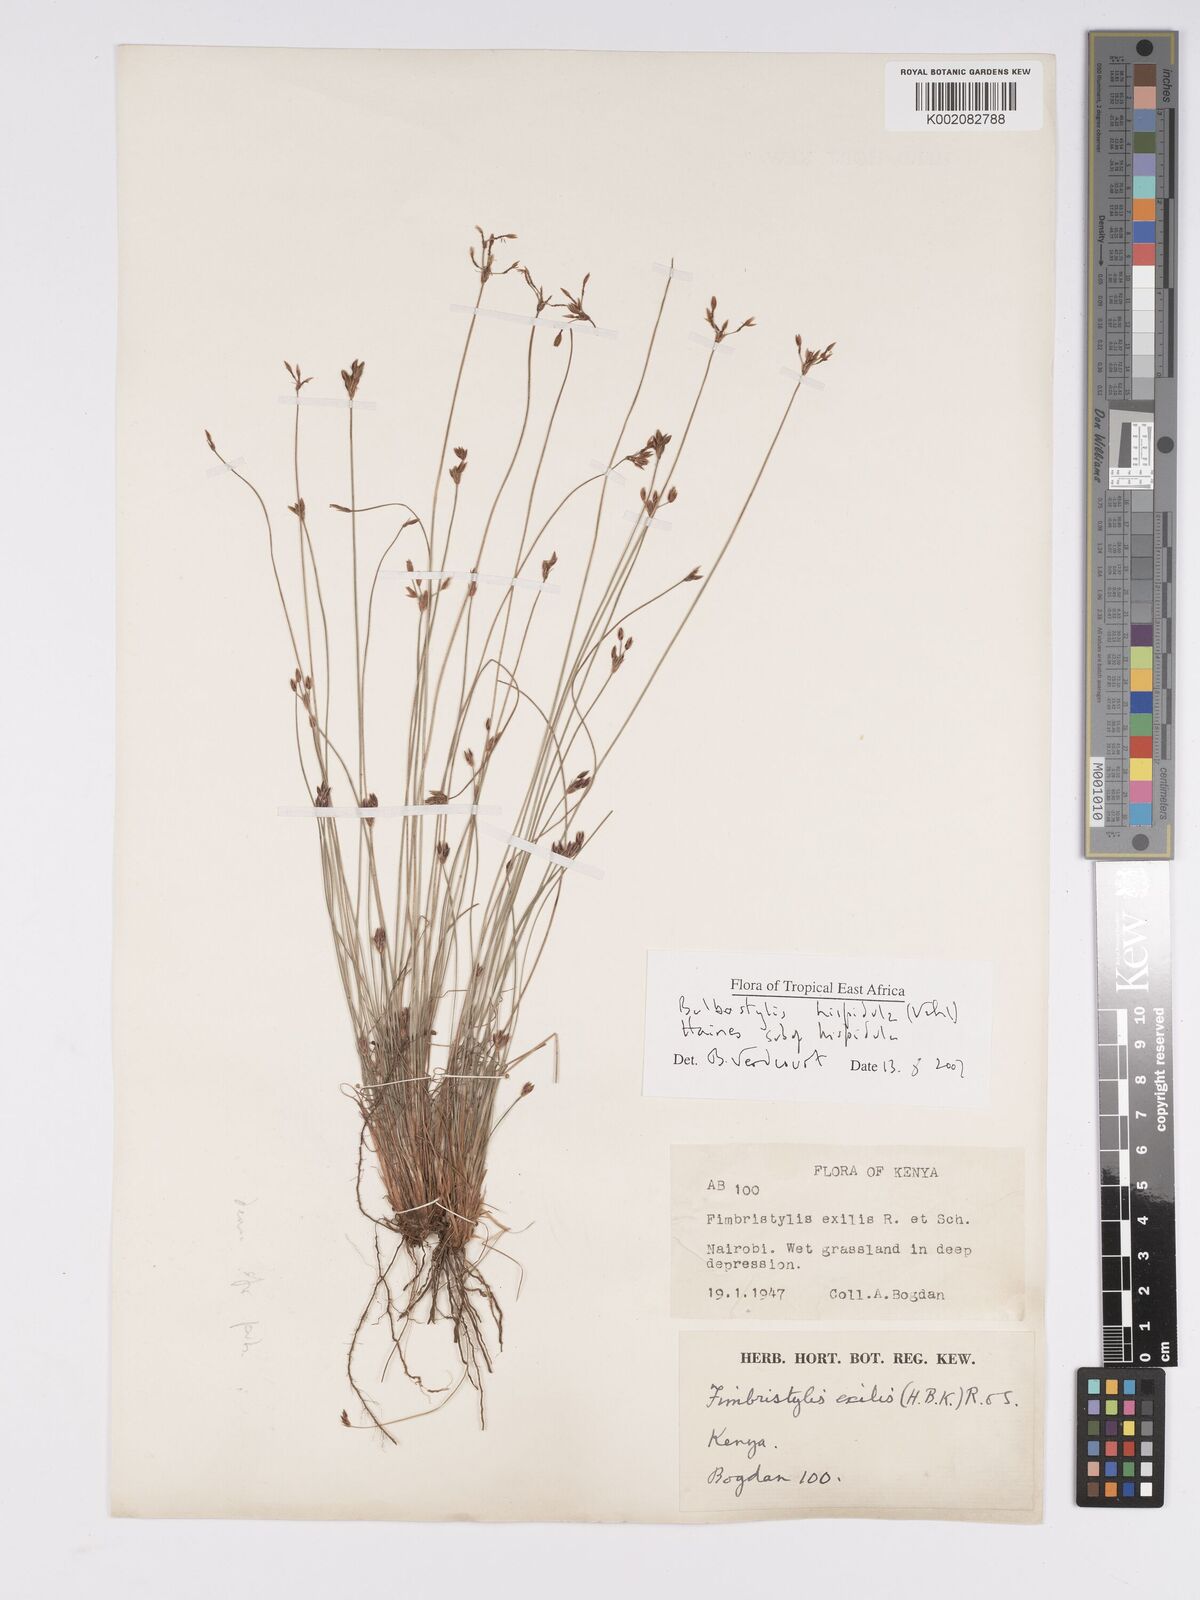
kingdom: Plantae
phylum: Tracheophyta
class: Liliopsida
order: Poales
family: Cyperaceae
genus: Bulbostylis
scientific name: Bulbostylis hispidula
